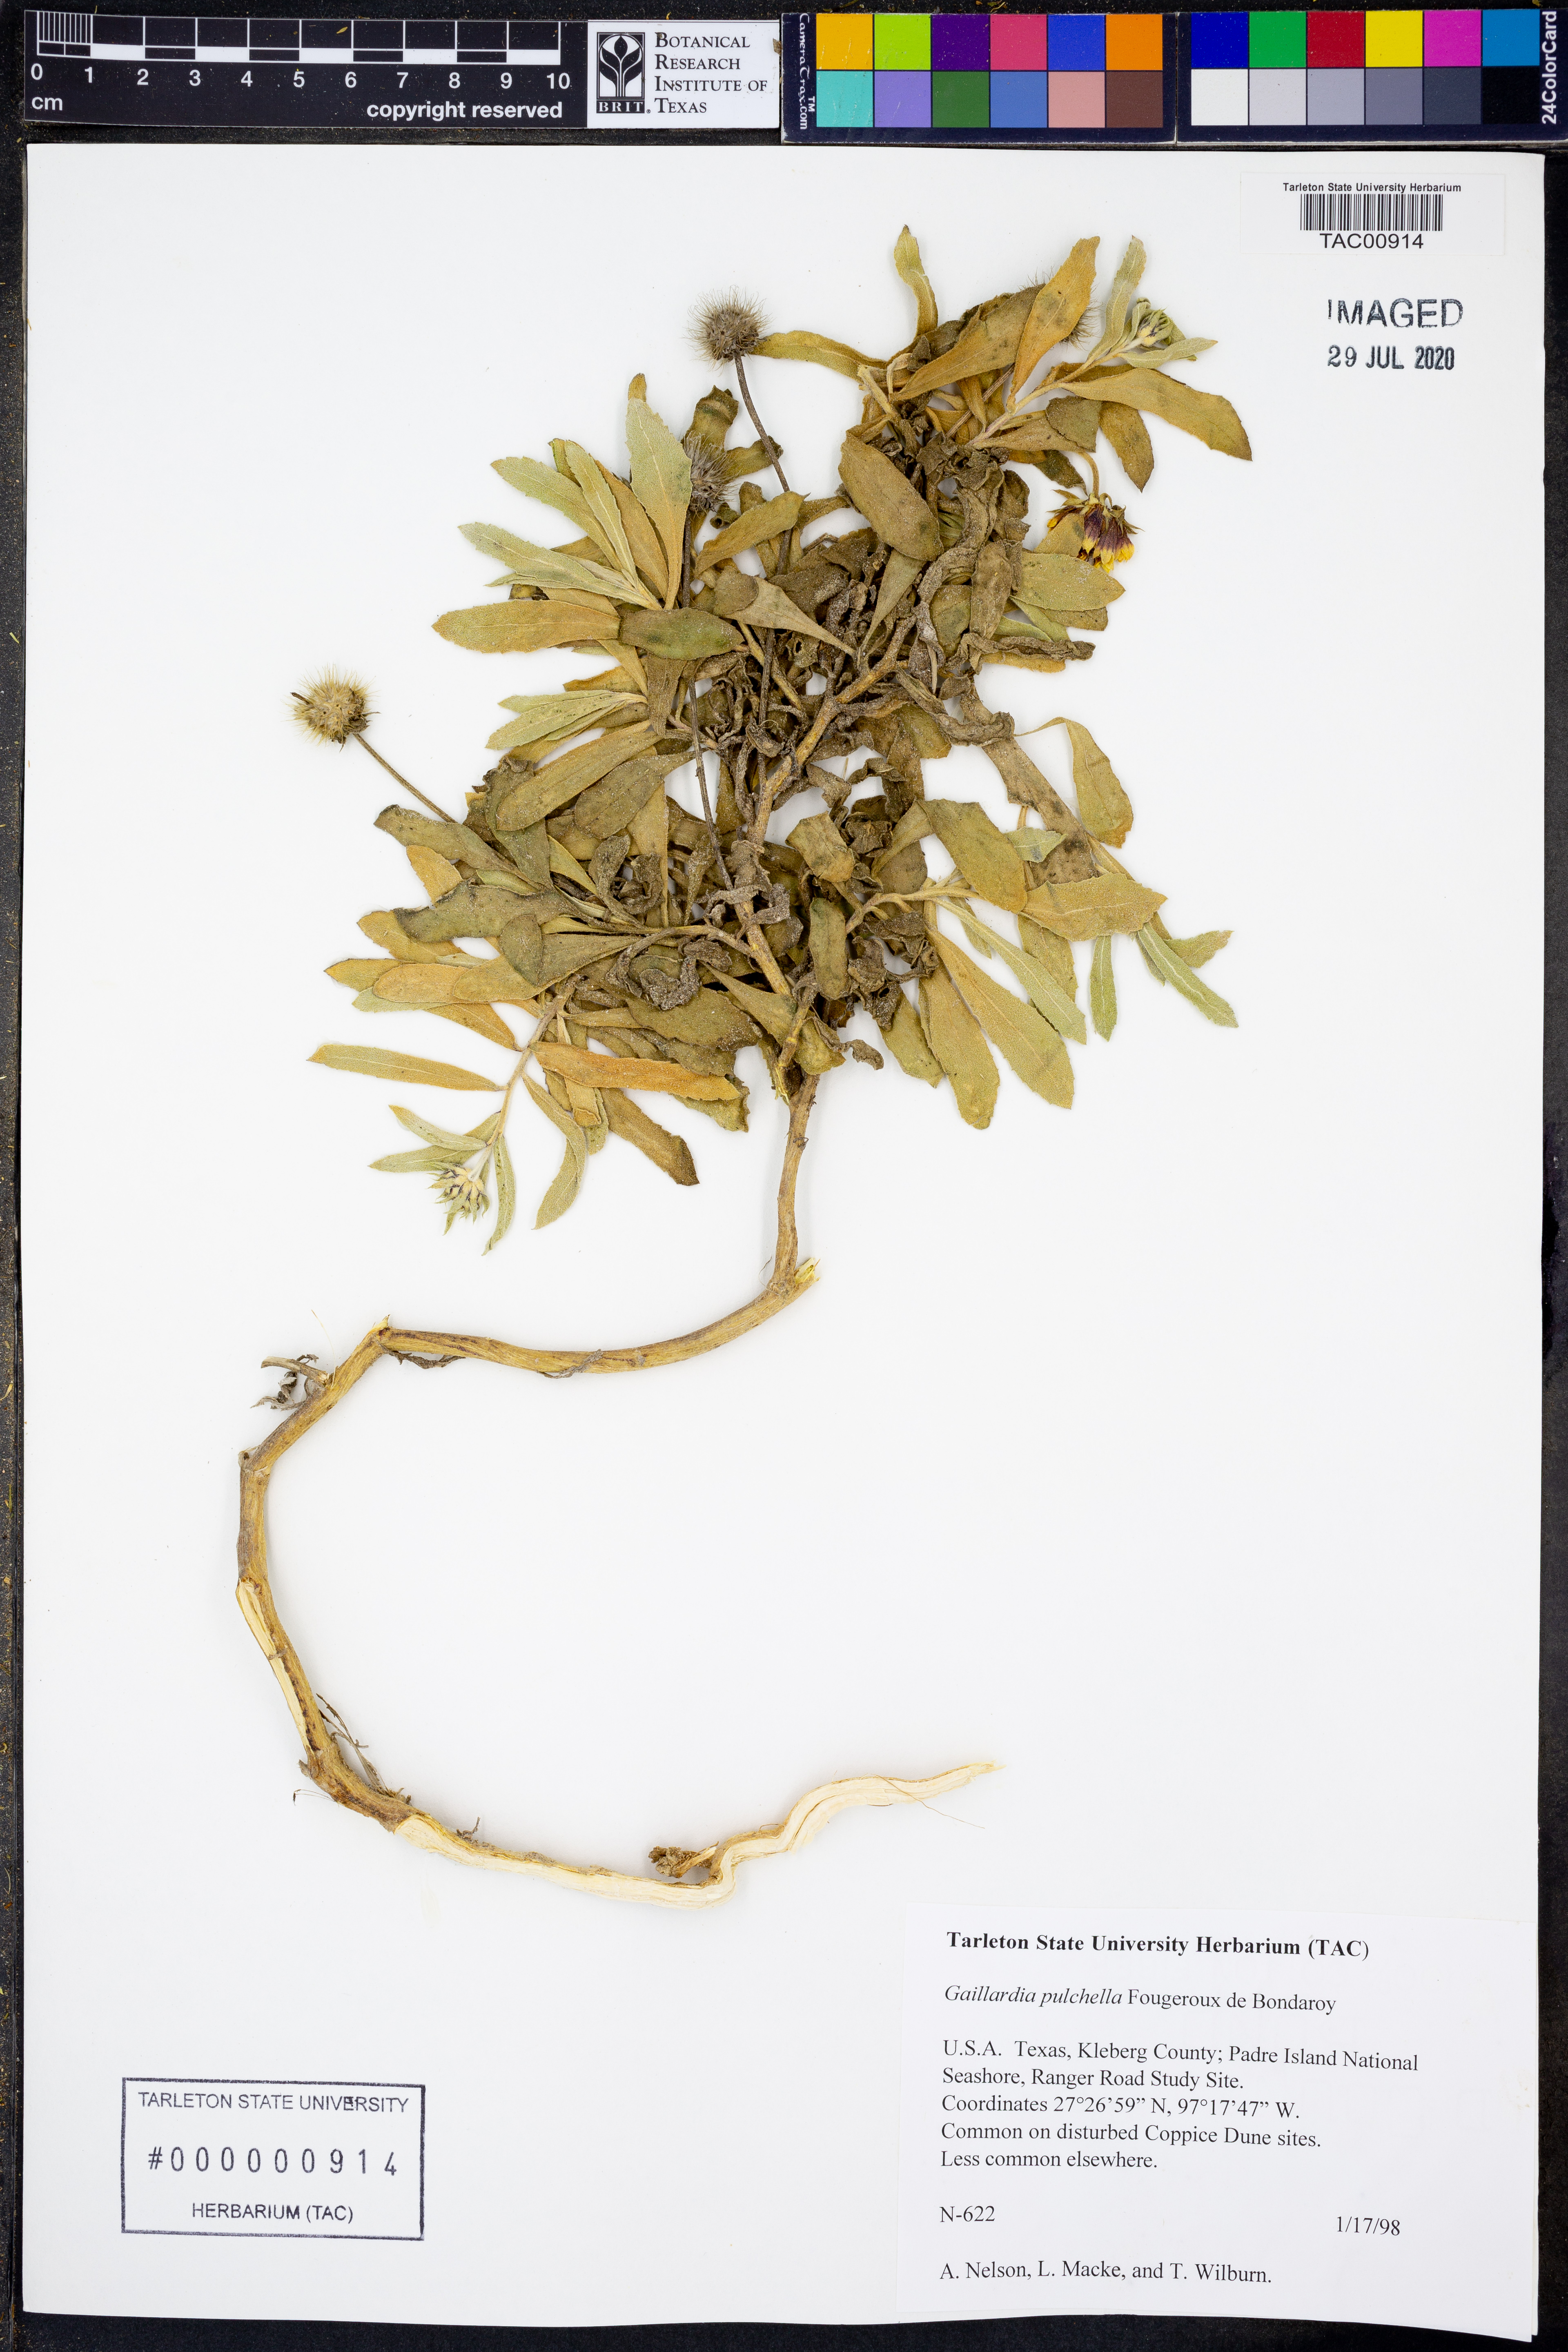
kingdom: Plantae
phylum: Tracheophyta
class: Magnoliopsida
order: Asterales
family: Asteraceae
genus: Gaillardia
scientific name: Gaillardia pulchella
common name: Firewheel
